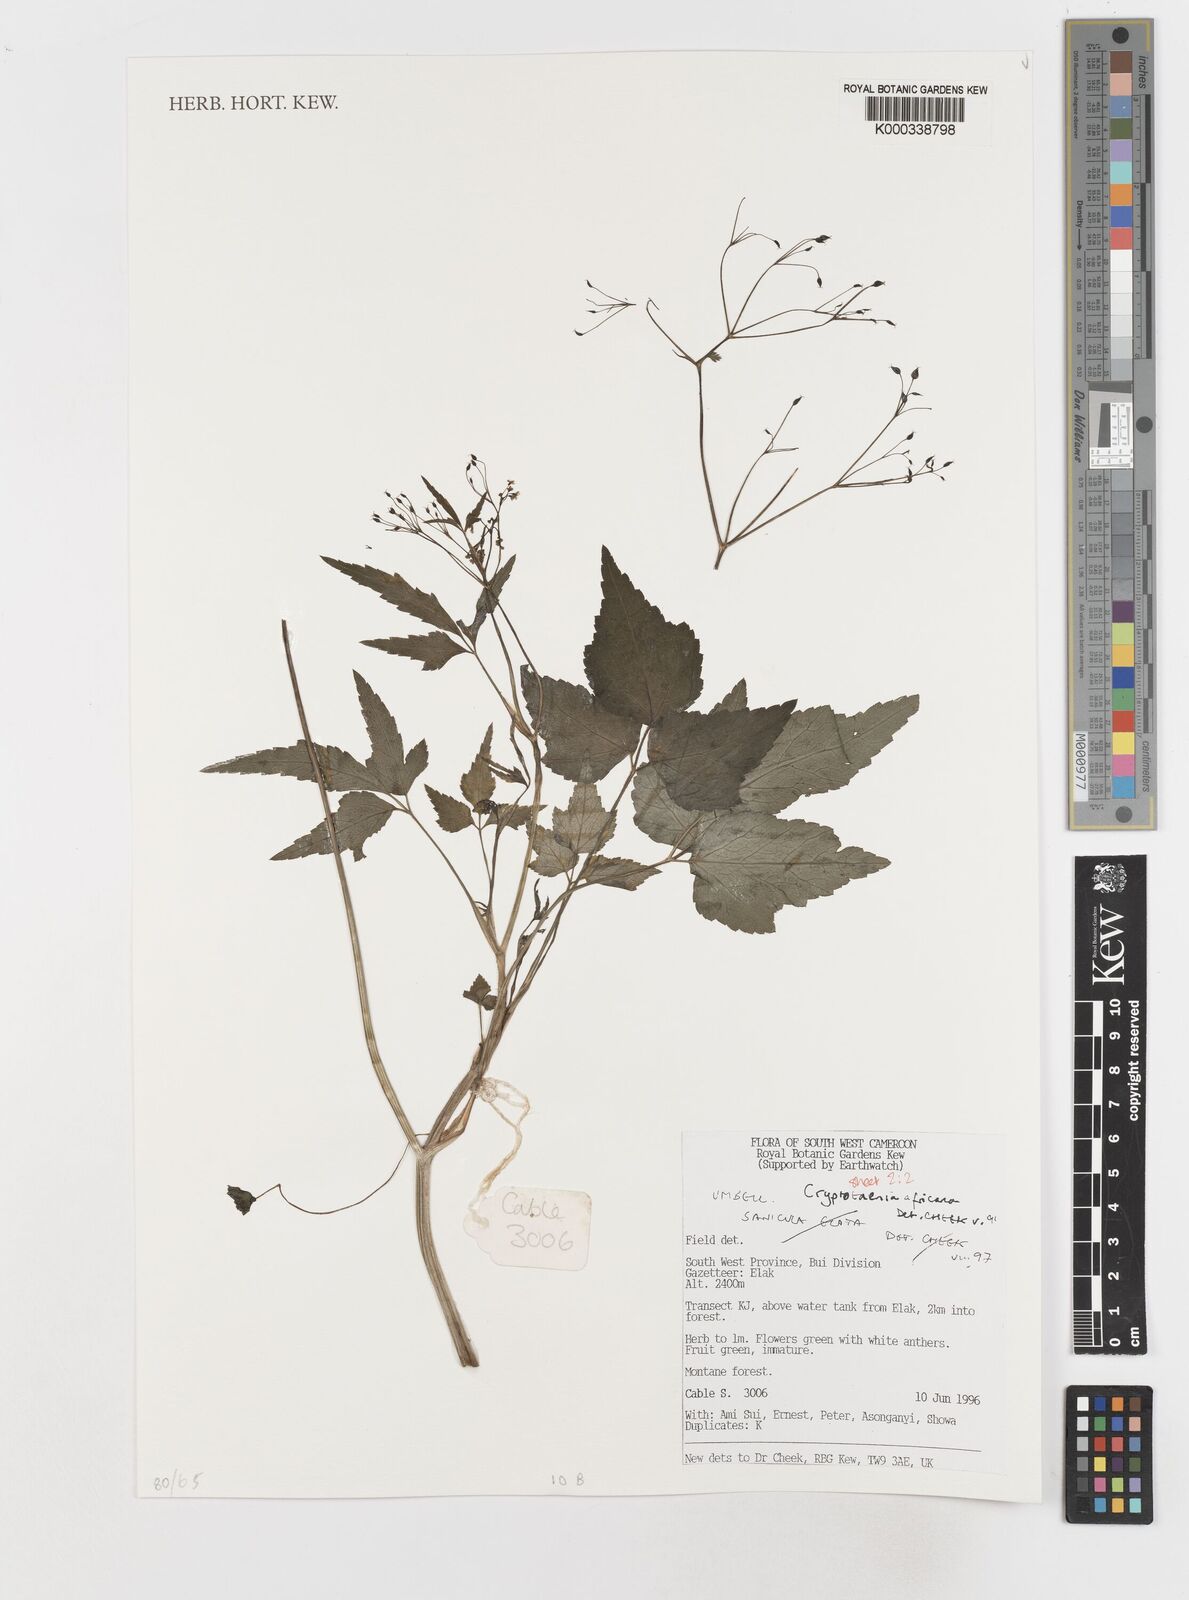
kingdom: Plantae
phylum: Tracheophyta
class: Magnoliopsida
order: Apiales
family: Apiaceae
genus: Cryptotaenia
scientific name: Cryptotaenia africana
